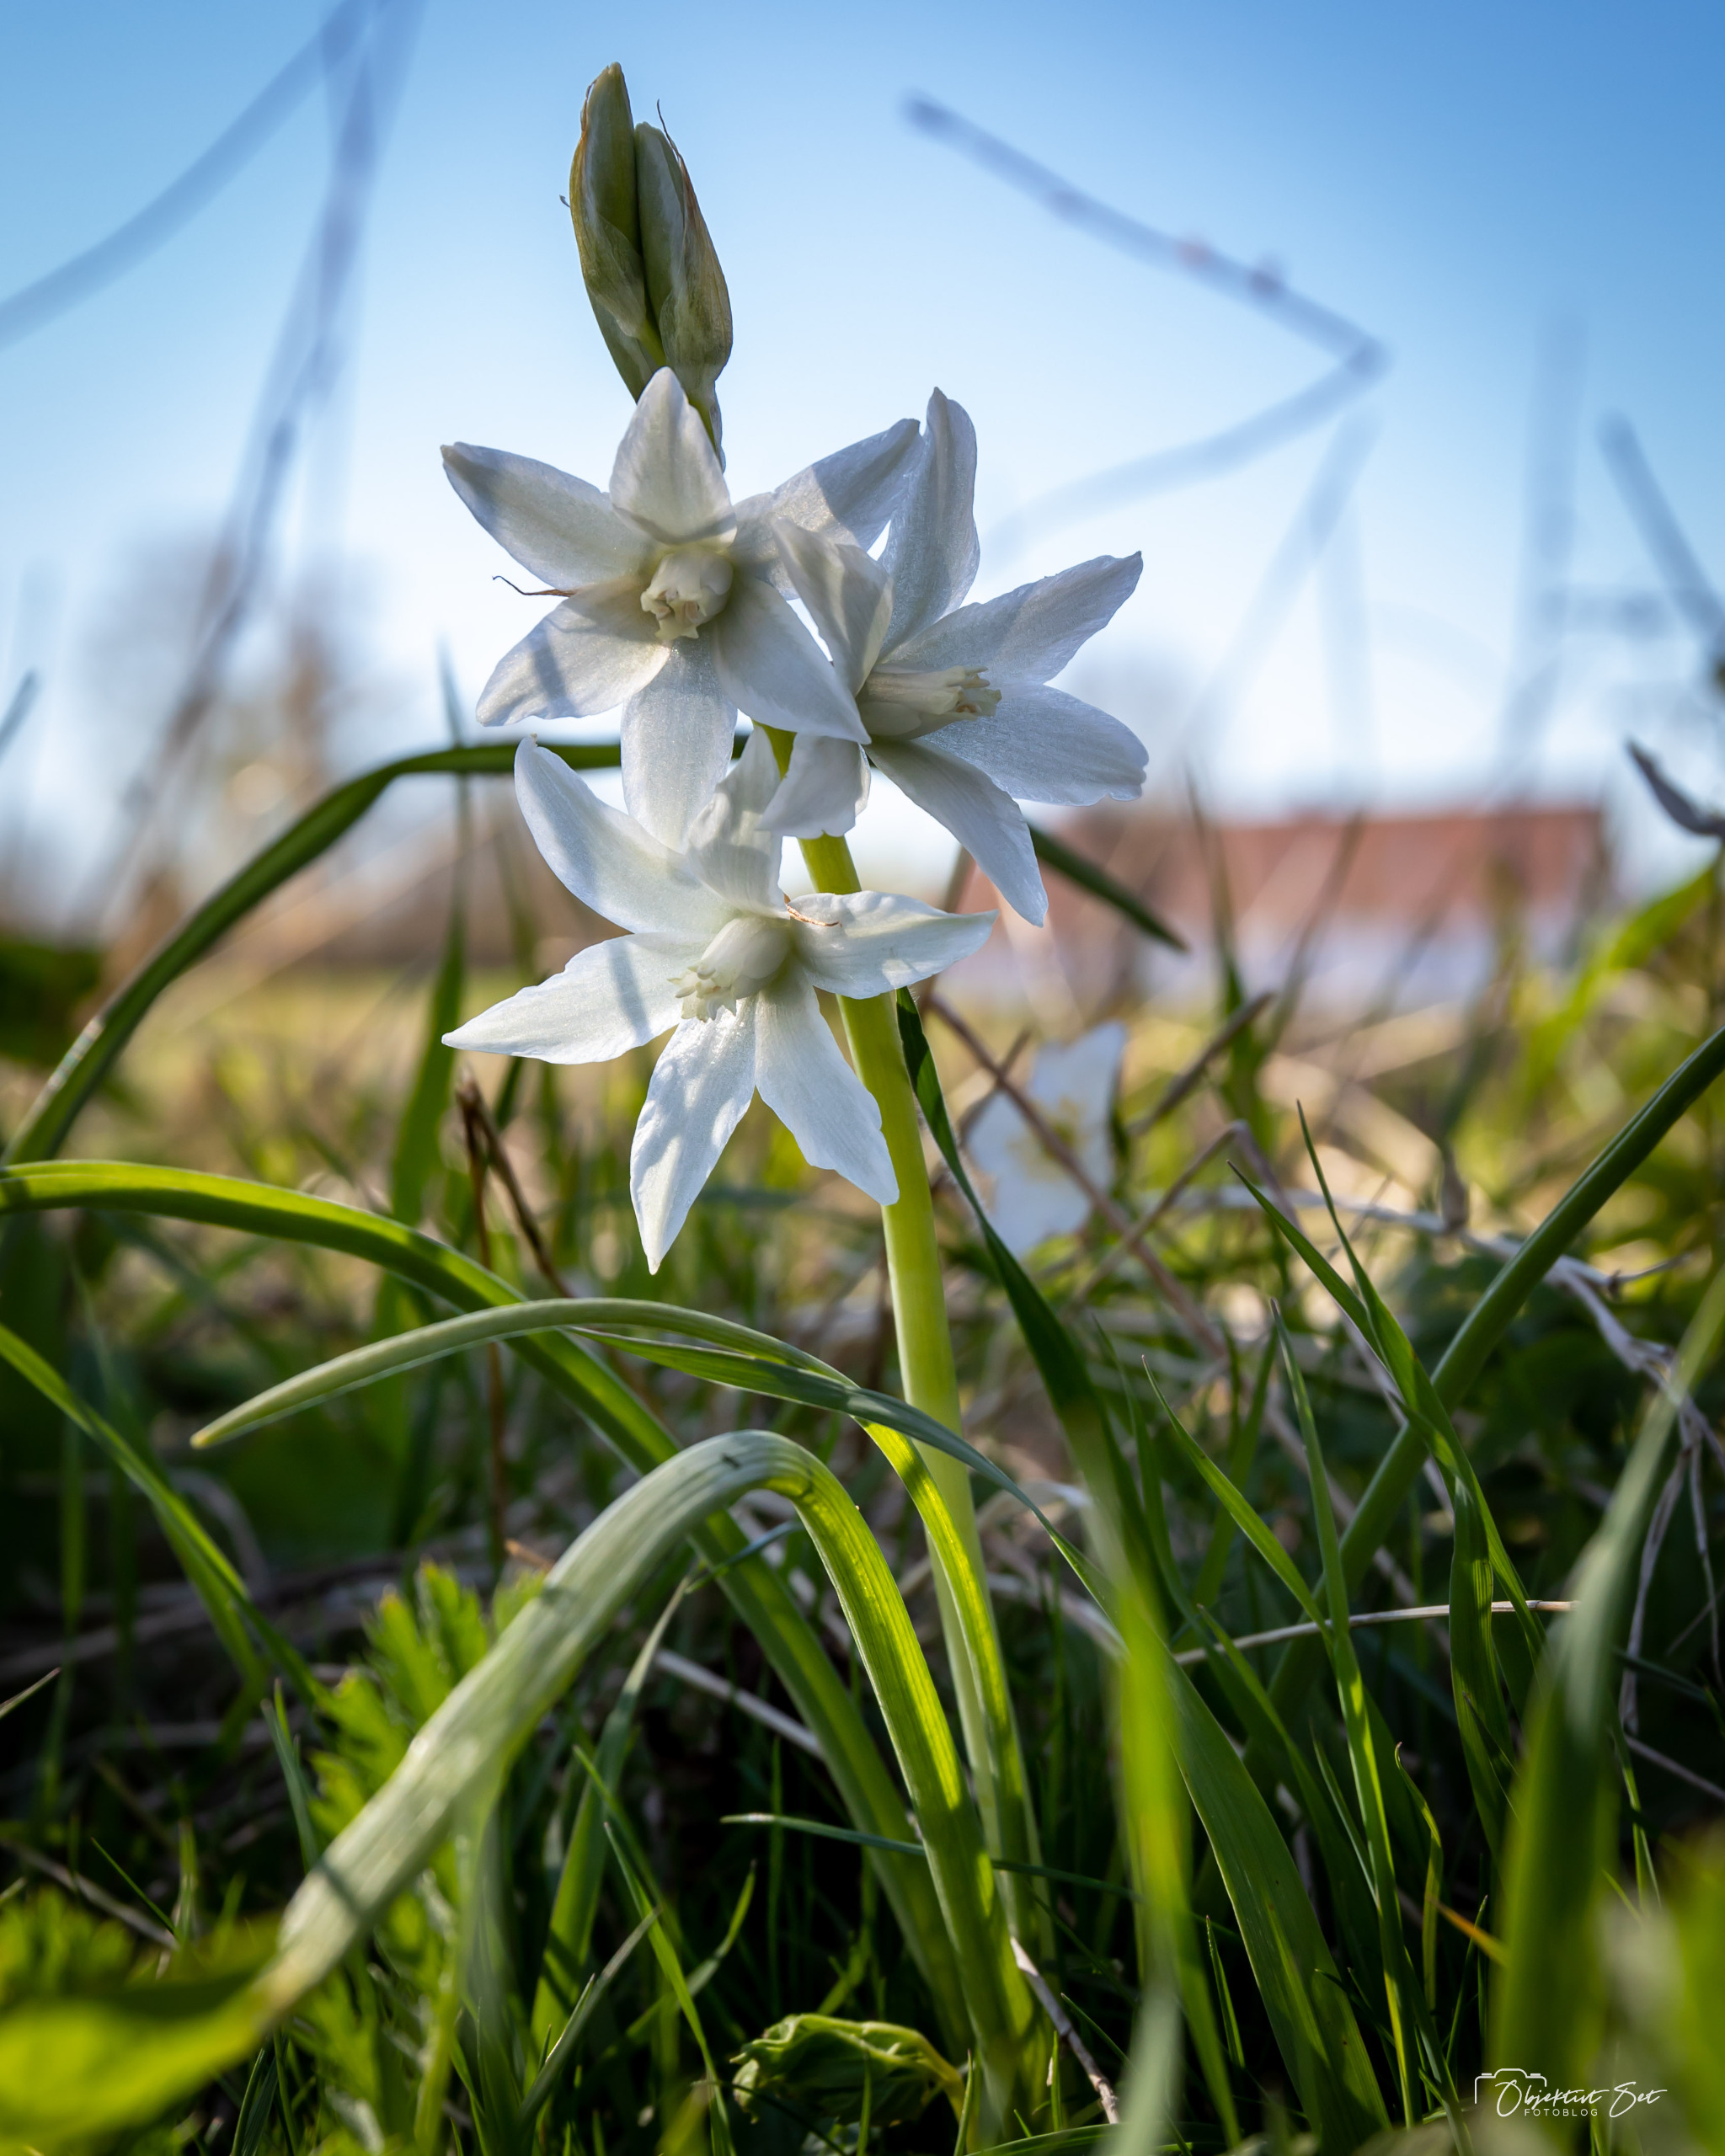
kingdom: Plantae
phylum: Tracheophyta
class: Liliopsida
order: Asparagales
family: Asparagaceae
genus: Ornithogalum
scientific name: Ornithogalum umbellatum
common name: Kost-fuglemælk
